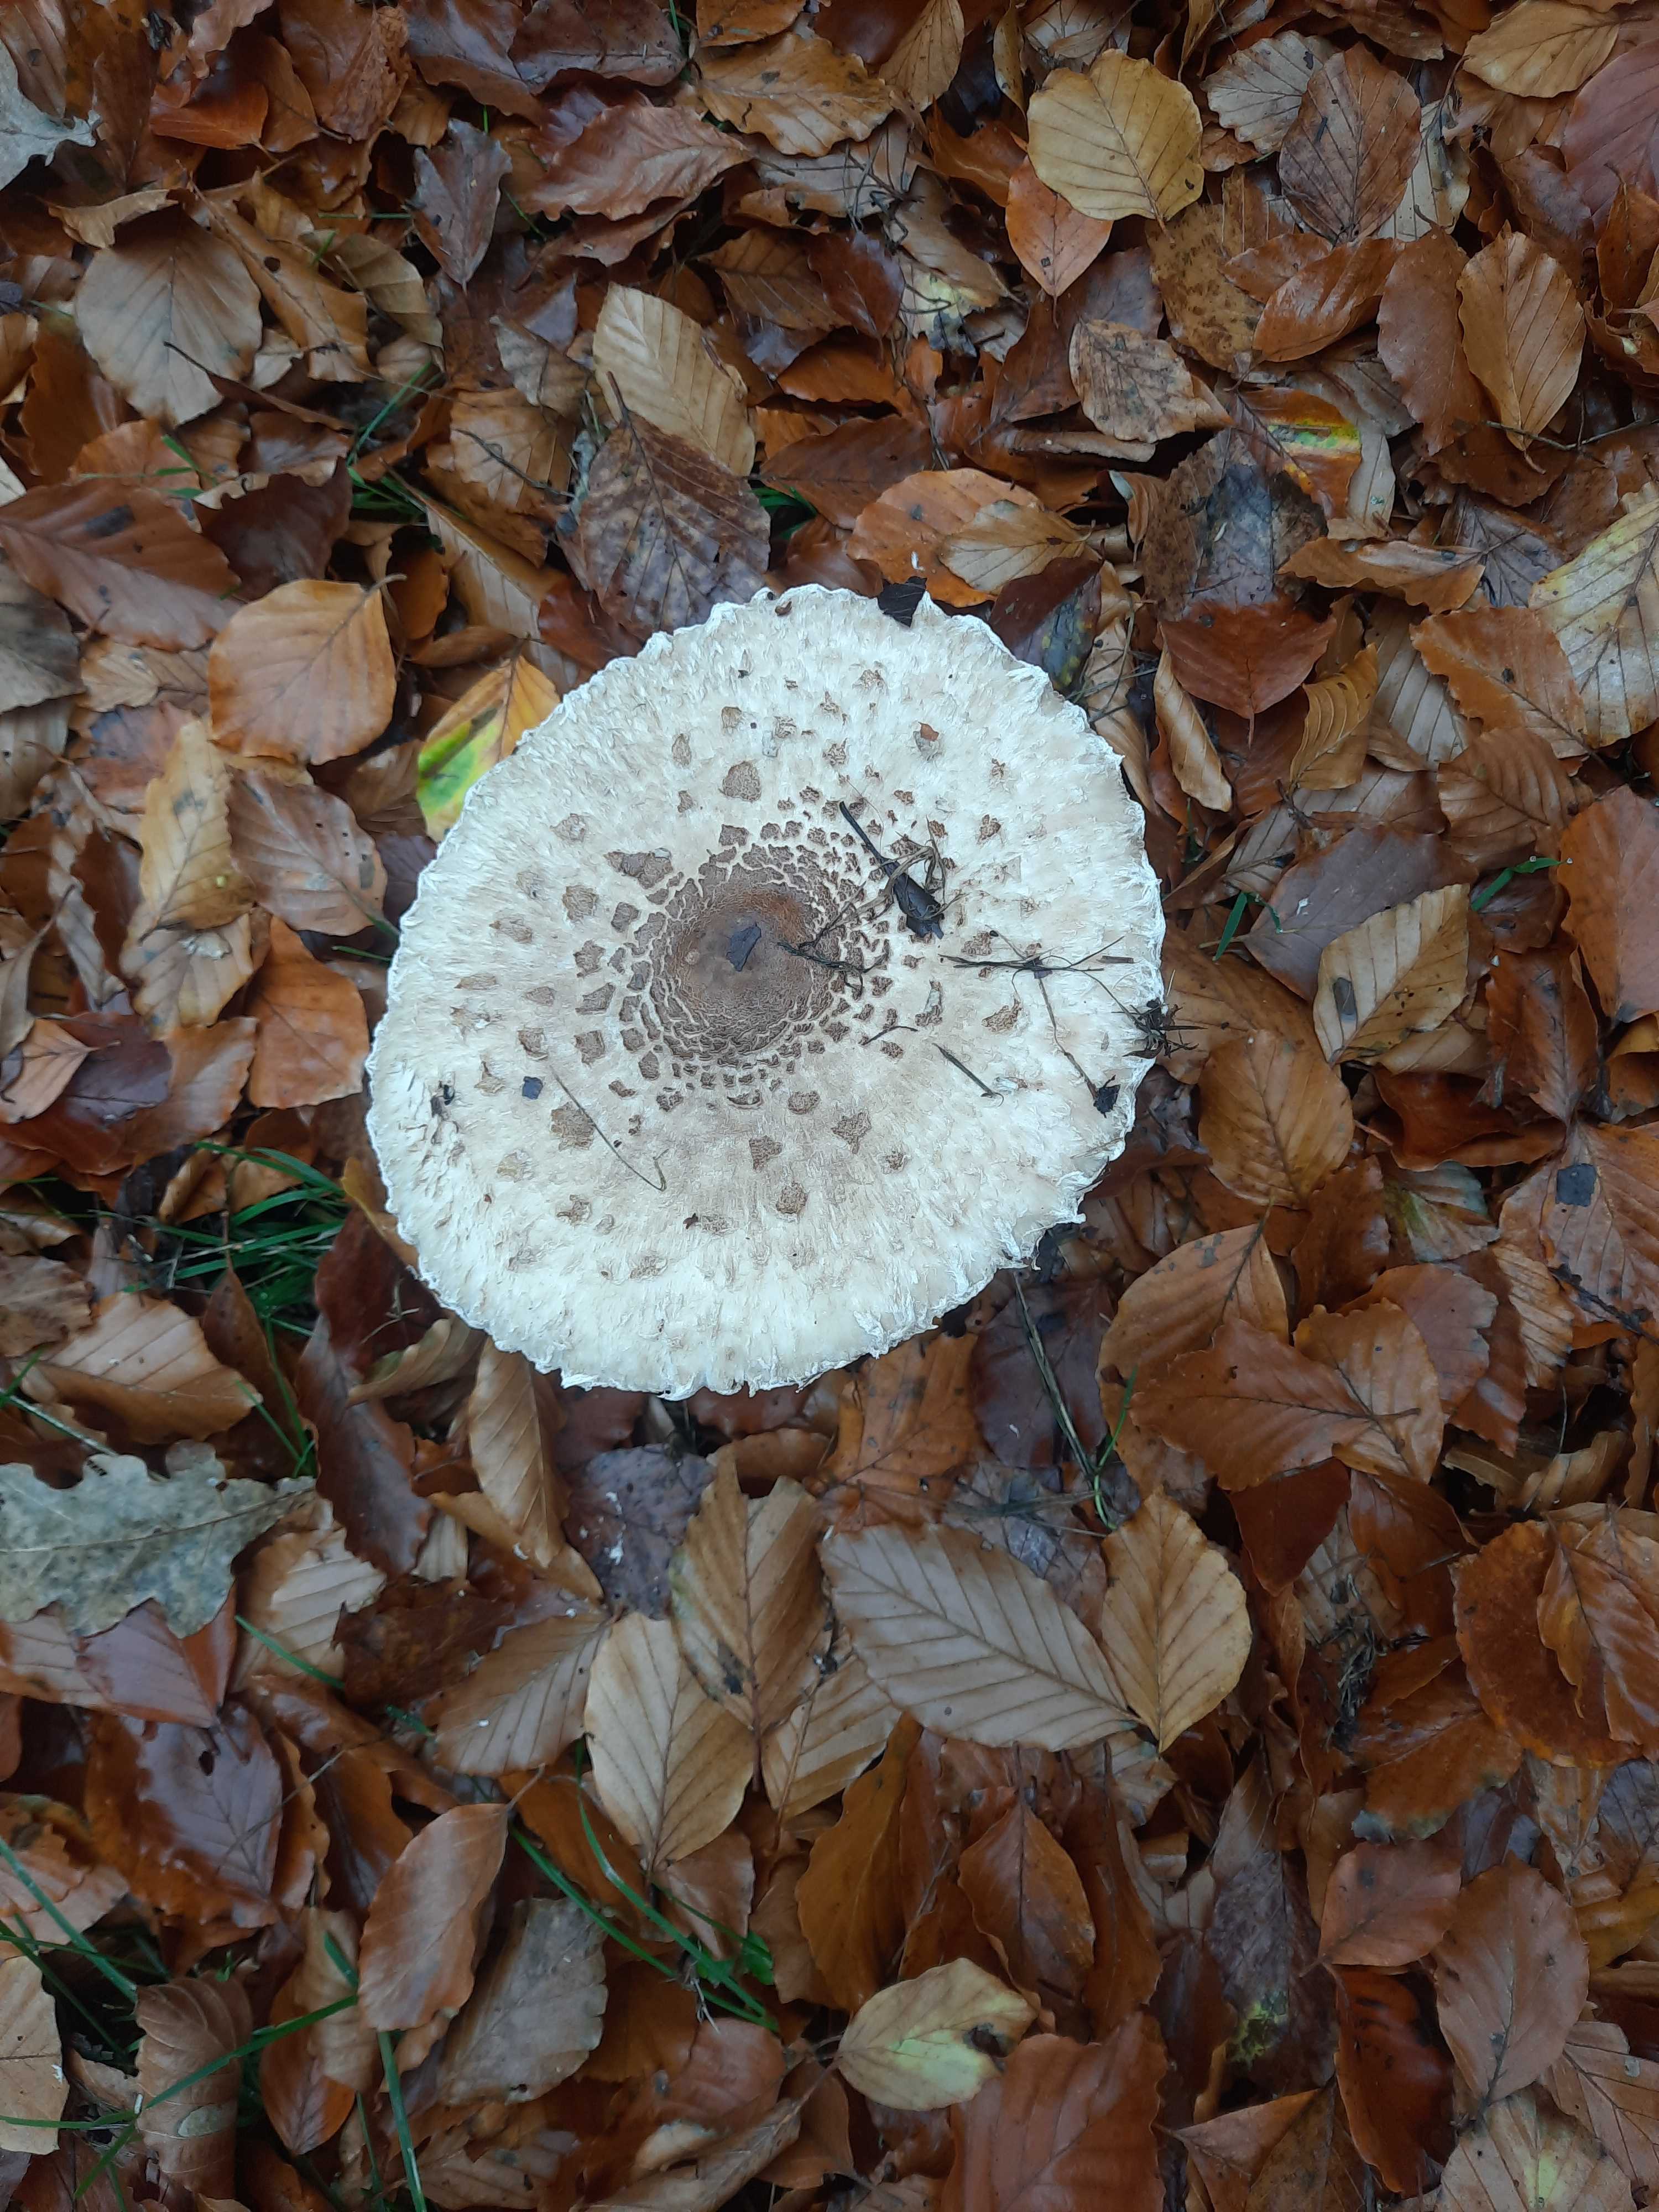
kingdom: Fungi
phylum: Basidiomycota
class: Agaricomycetes
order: Agaricales
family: Agaricaceae
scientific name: Agaricaceae
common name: champignonfamilien
